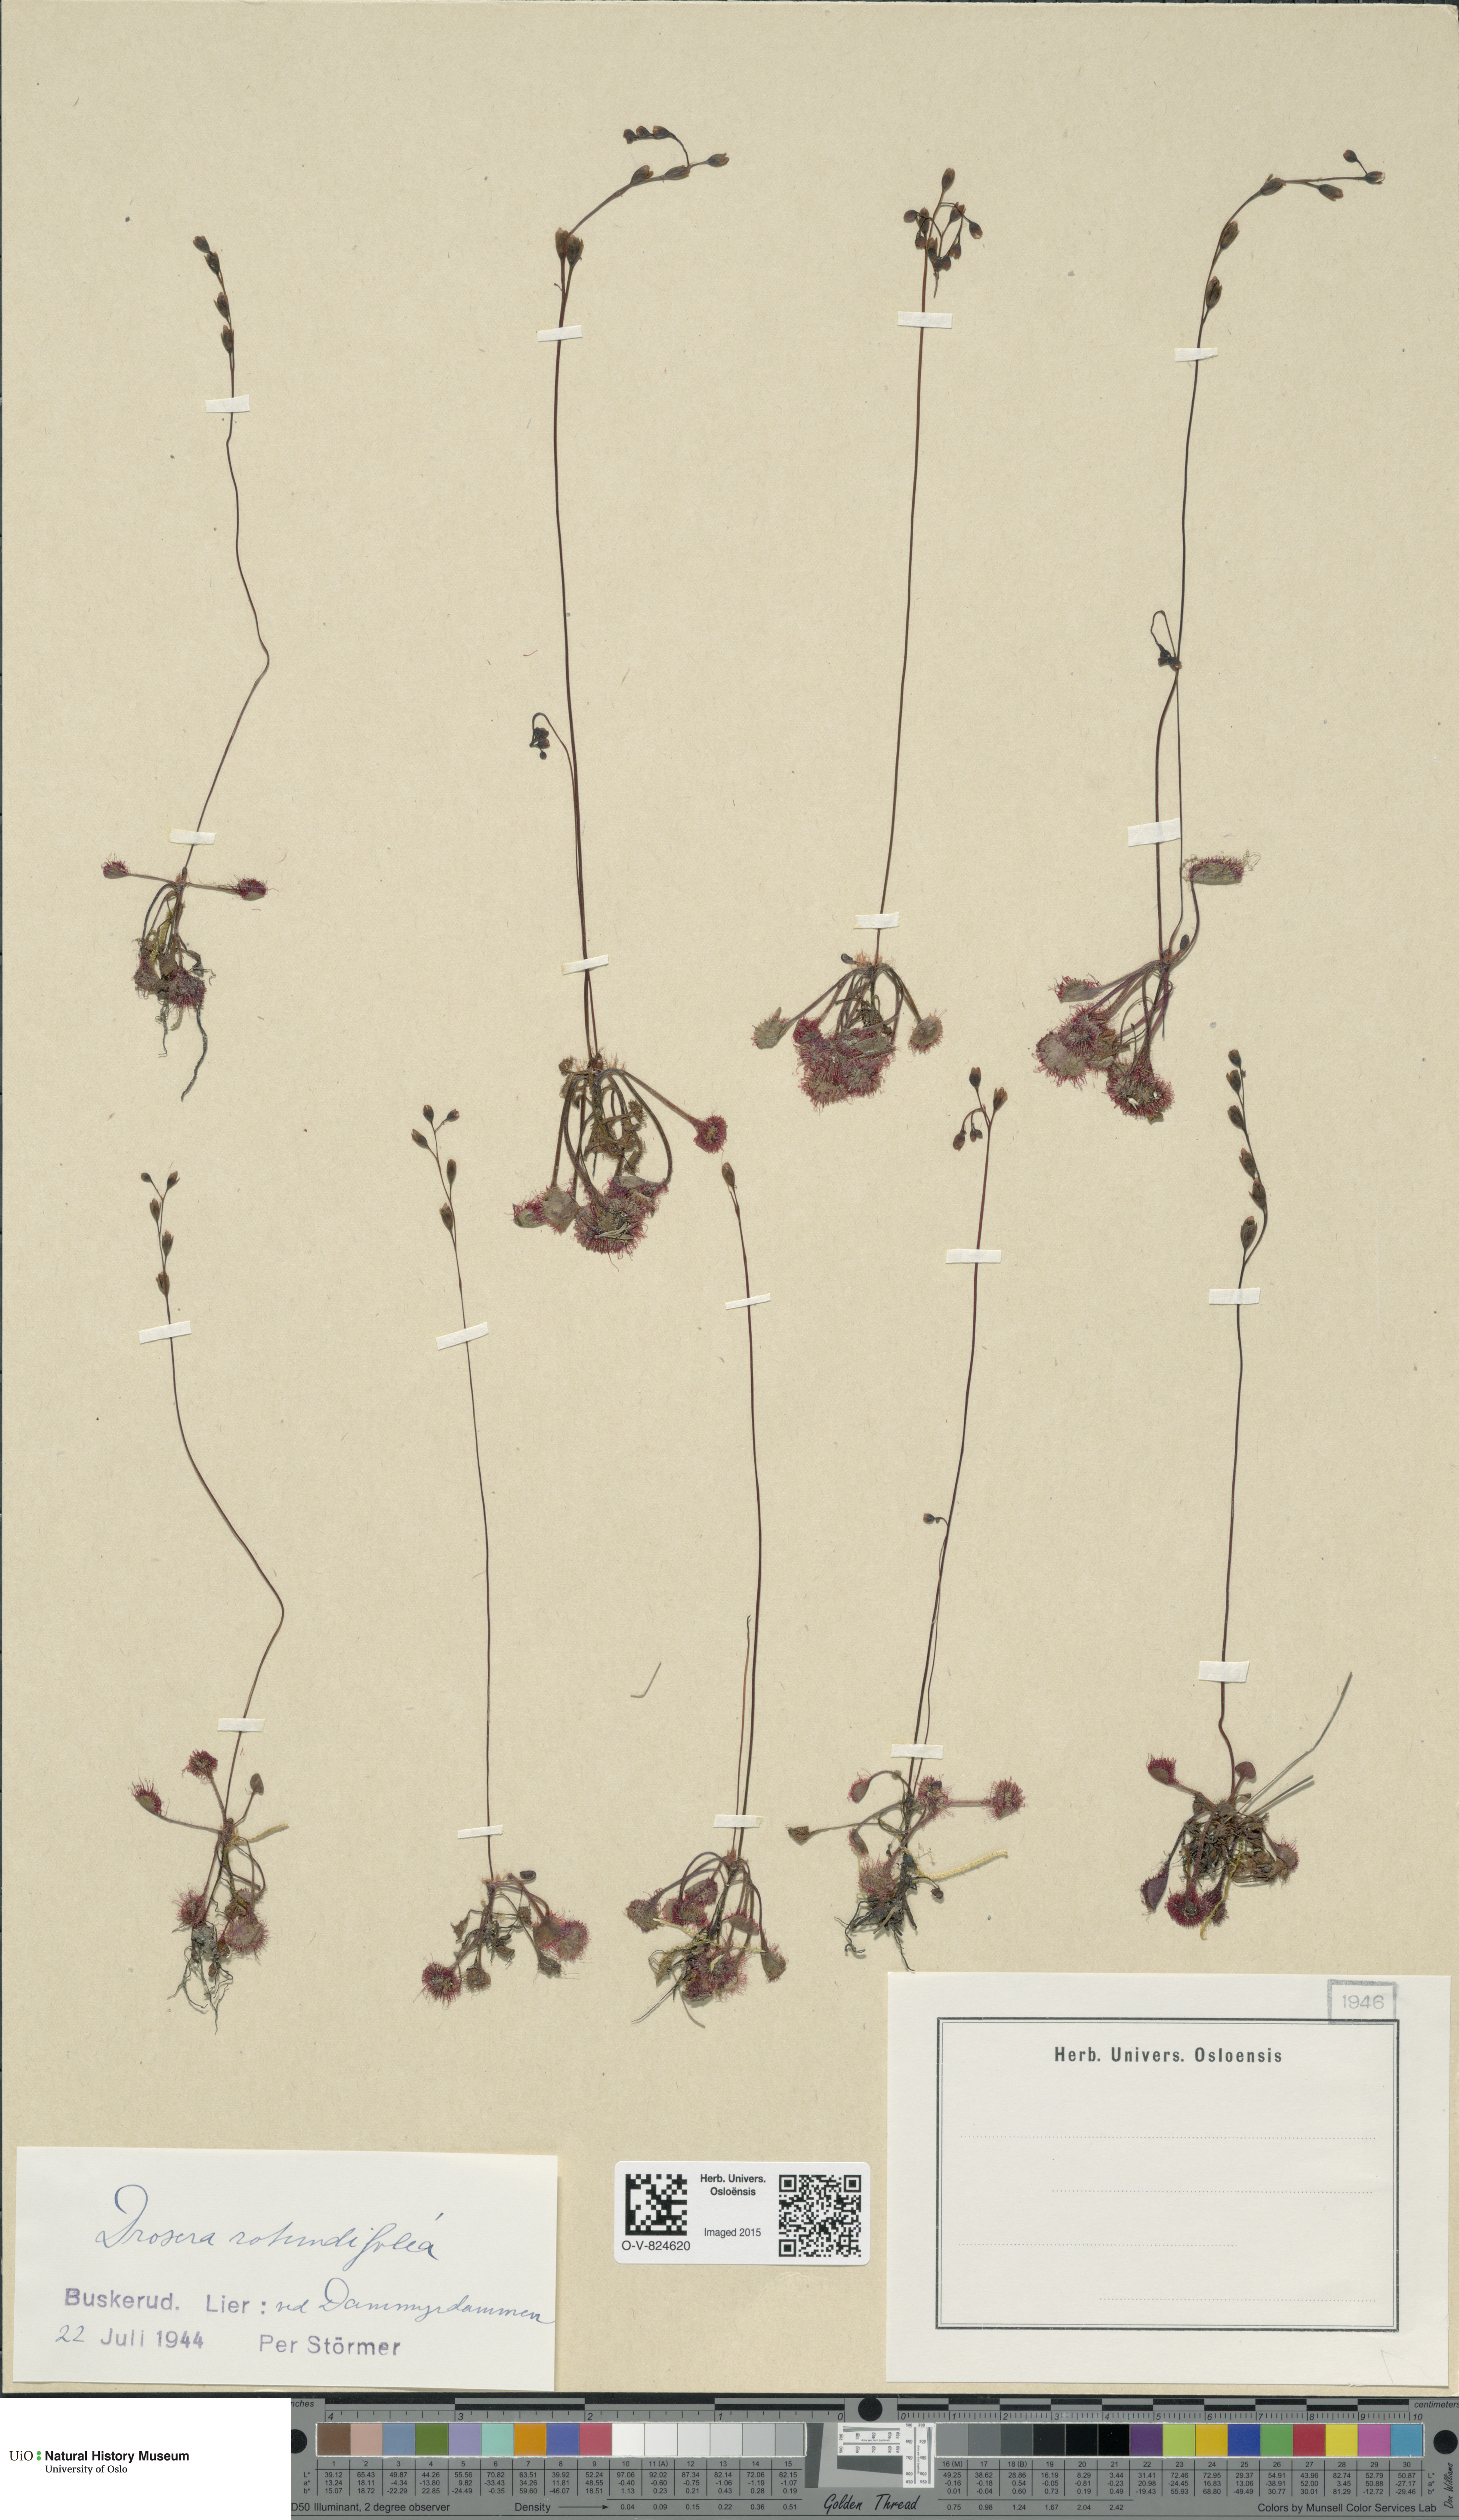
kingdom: Plantae
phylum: Tracheophyta
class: Magnoliopsida
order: Caryophyllales
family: Droseraceae
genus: Drosera
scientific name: Drosera rotundifolia
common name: Round-leaved sundew
